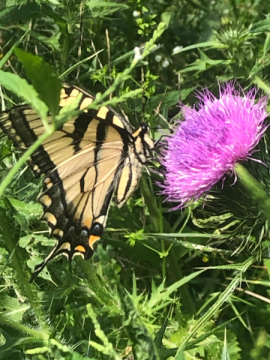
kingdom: Animalia
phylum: Arthropoda
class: Insecta
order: Lepidoptera
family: Papilionidae
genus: Papilio
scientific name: Papilio
